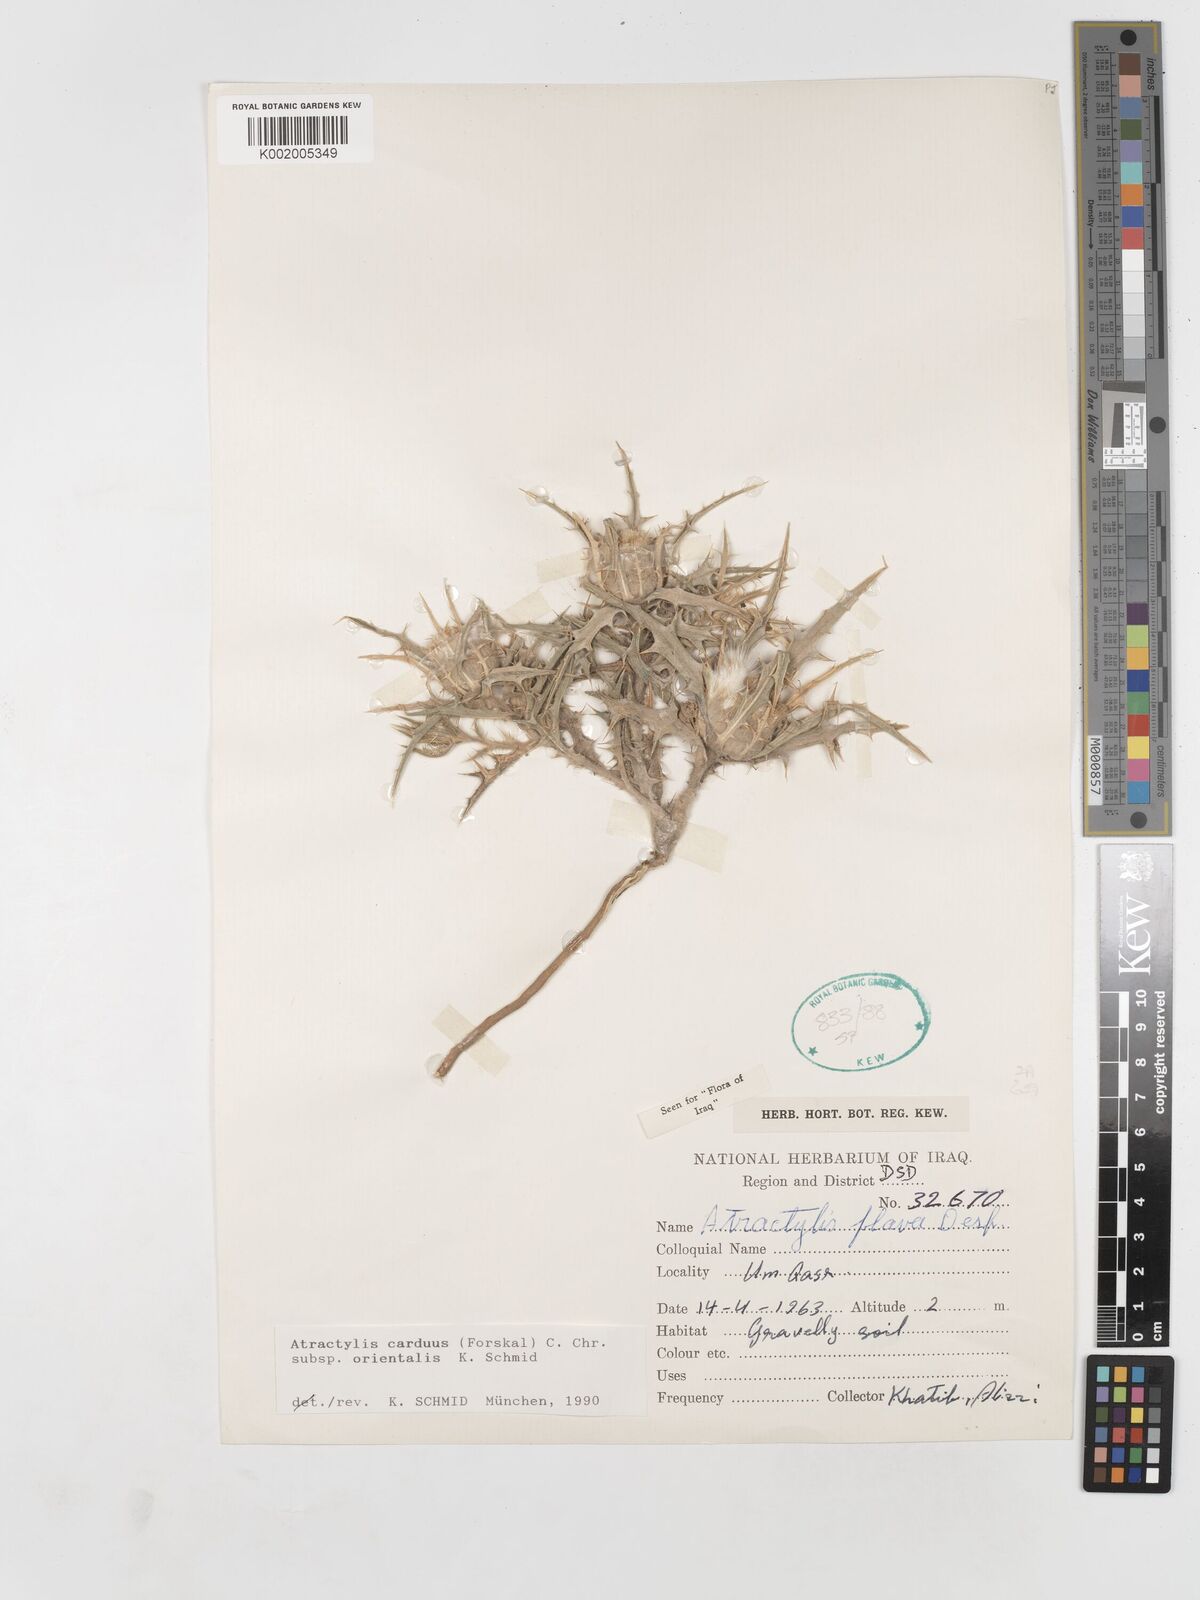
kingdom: Plantae
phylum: Tracheophyta
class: Magnoliopsida
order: Asterales
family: Asteraceae
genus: Atractylis
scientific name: Atractylis carduus
